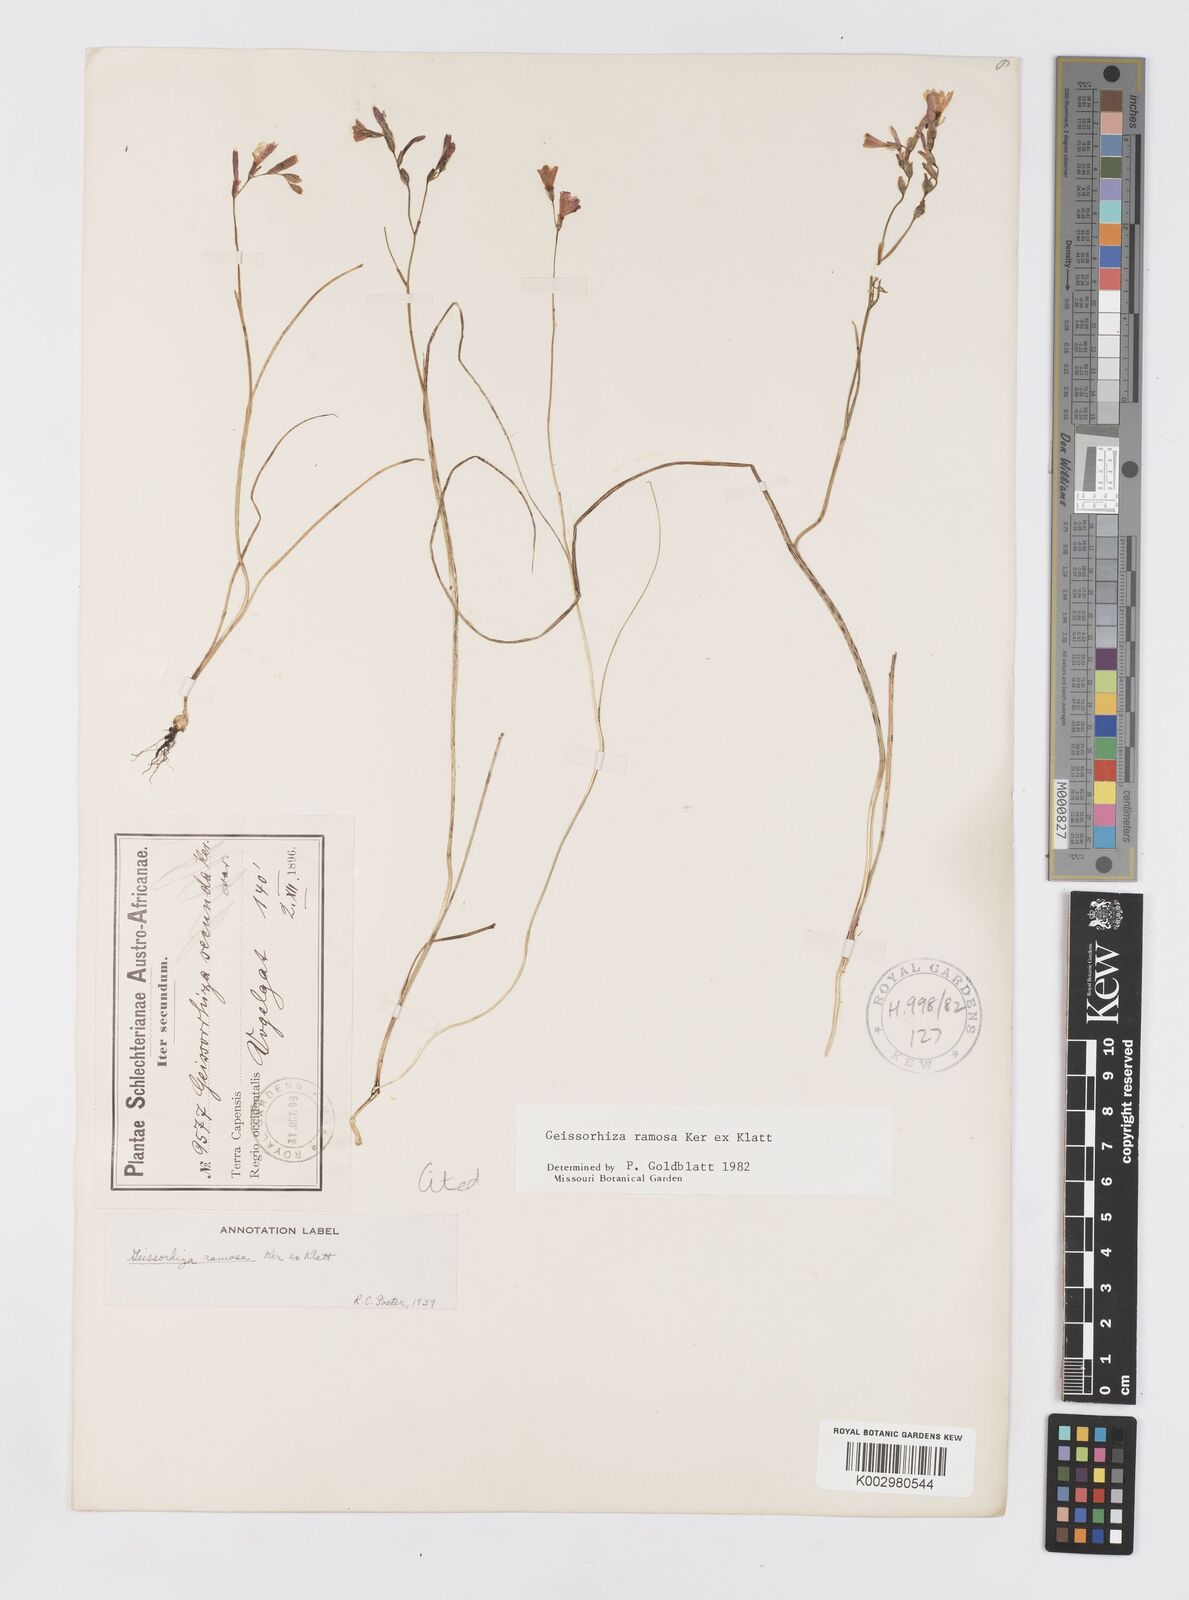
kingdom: Plantae
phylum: Tracheophyta
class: Liliopsida
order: Asparagales
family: Iridaceae
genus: Geissorhiza
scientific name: Geissorhiza ramosa
